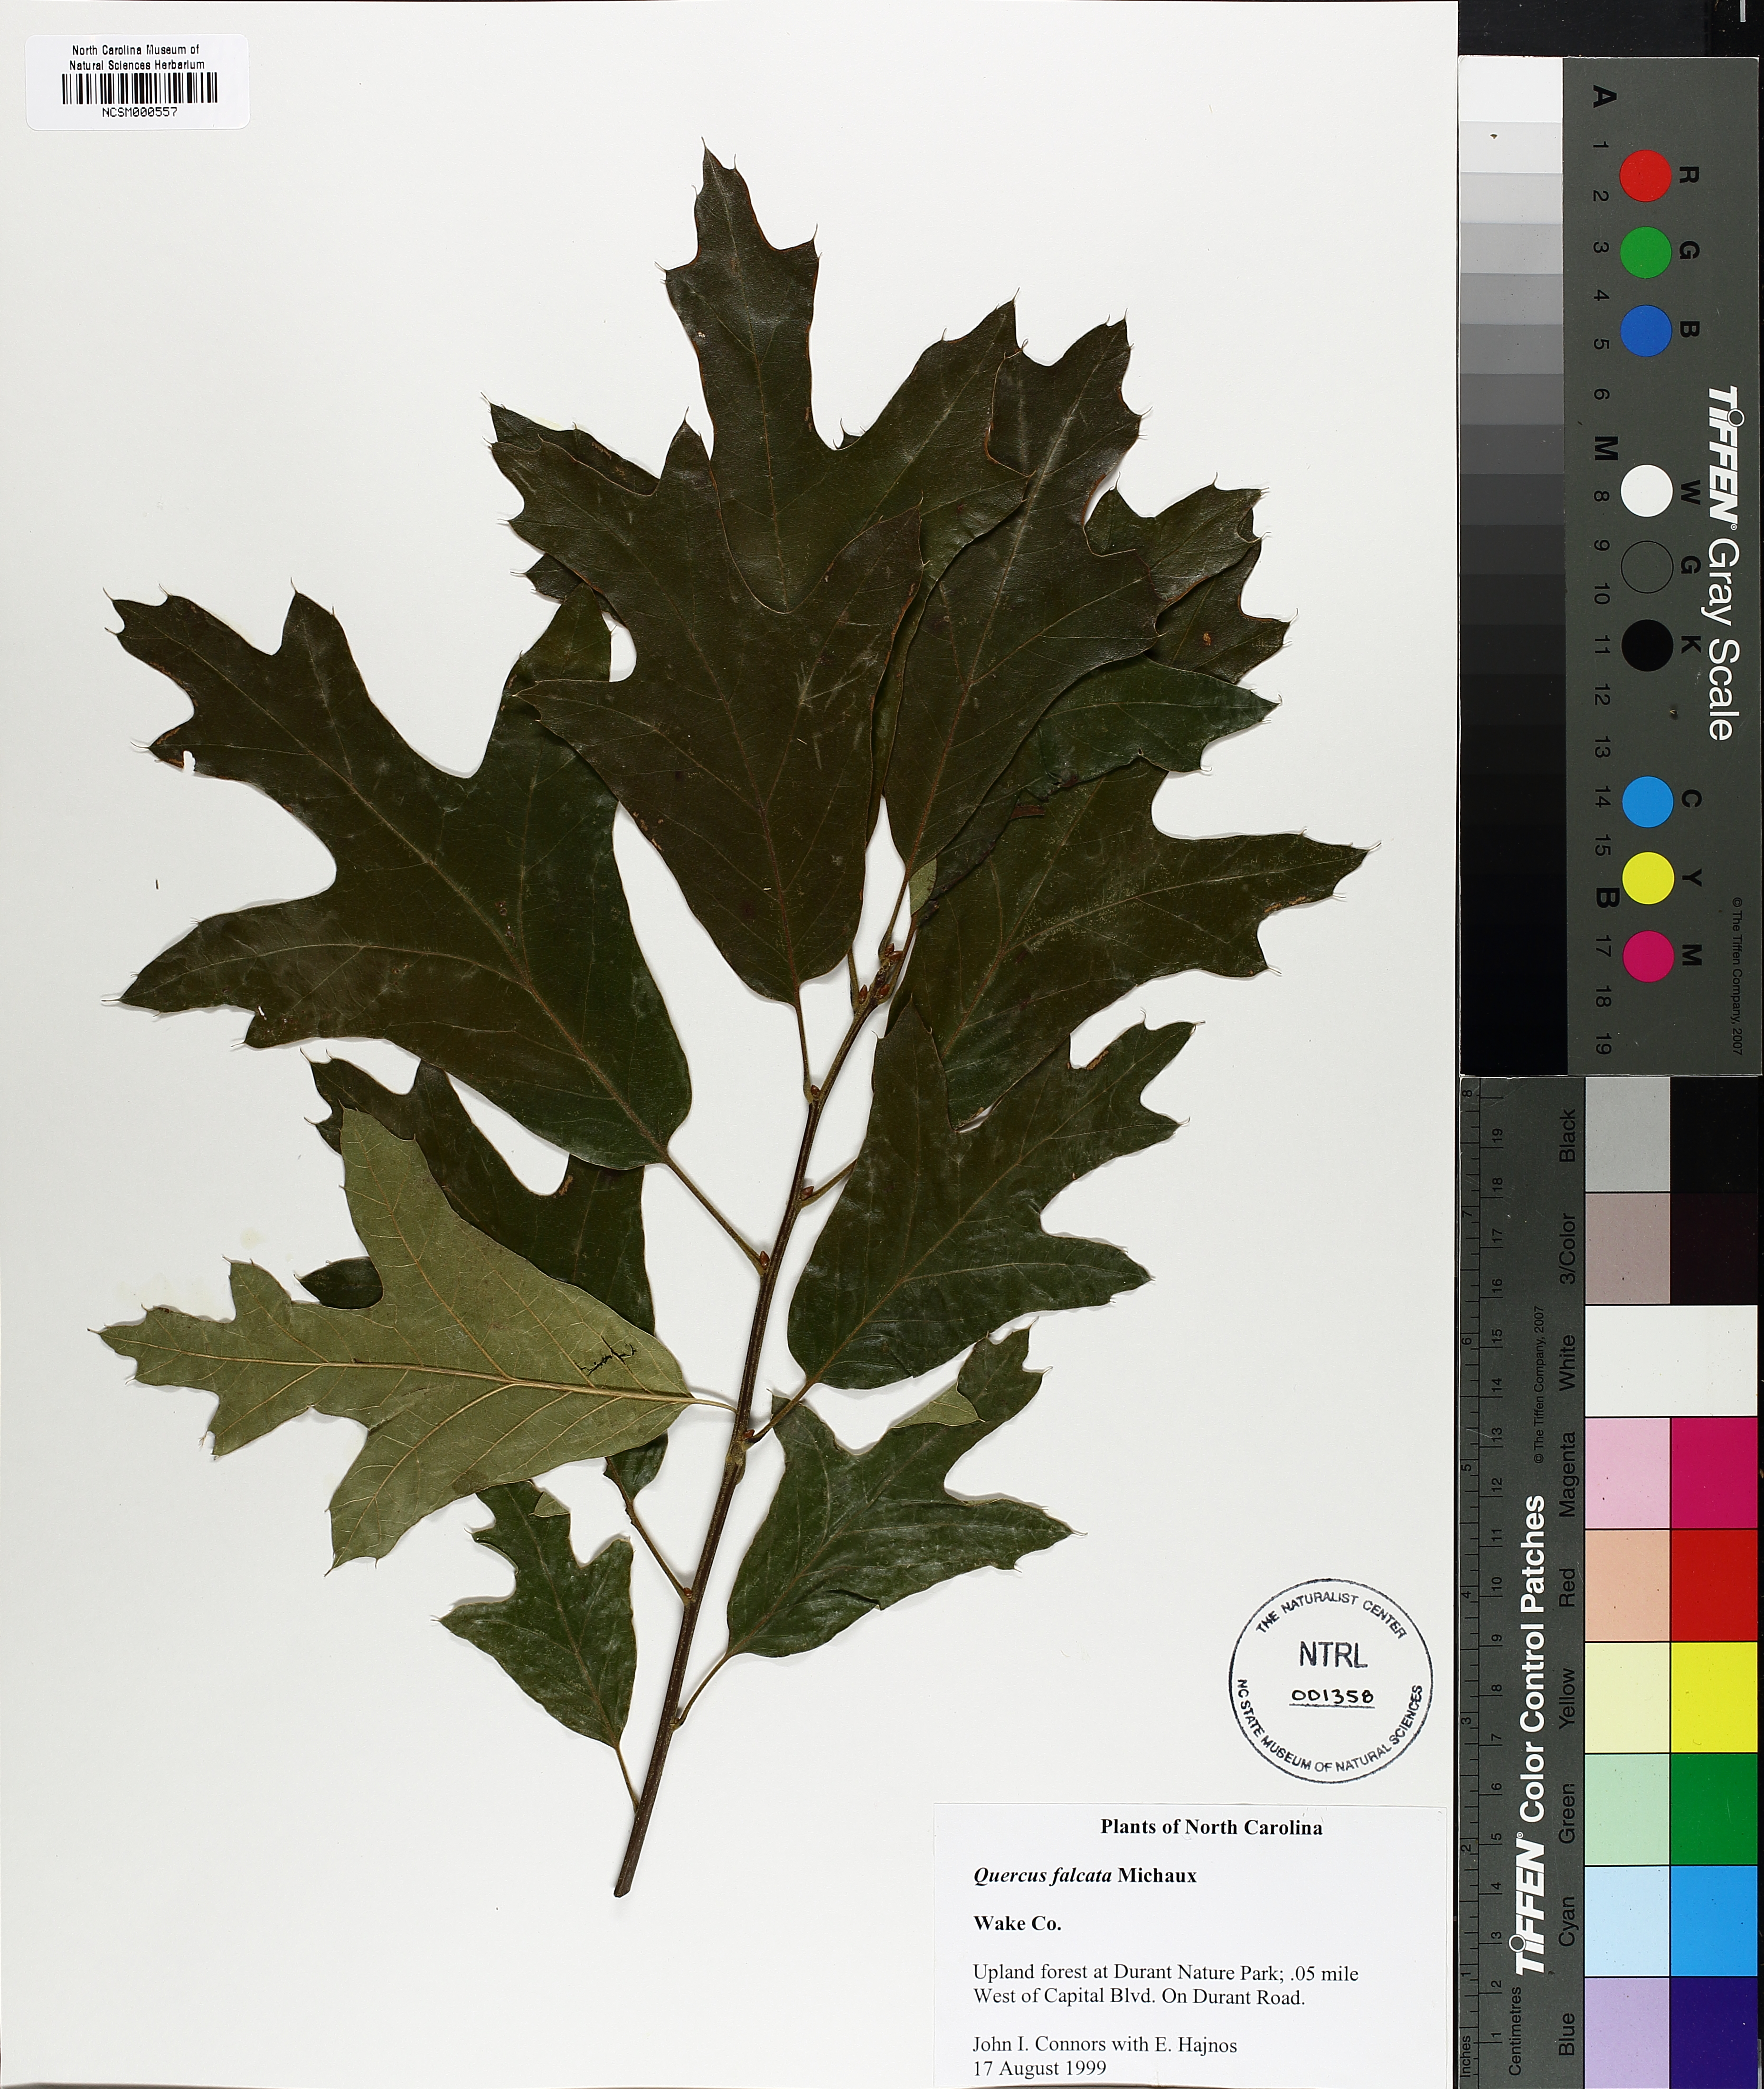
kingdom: Plantae
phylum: Tracheophyta
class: Magnoliopsida
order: Fagales
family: Fagaceae
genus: Quercus
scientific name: Quercus falcata
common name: Southern red oak
